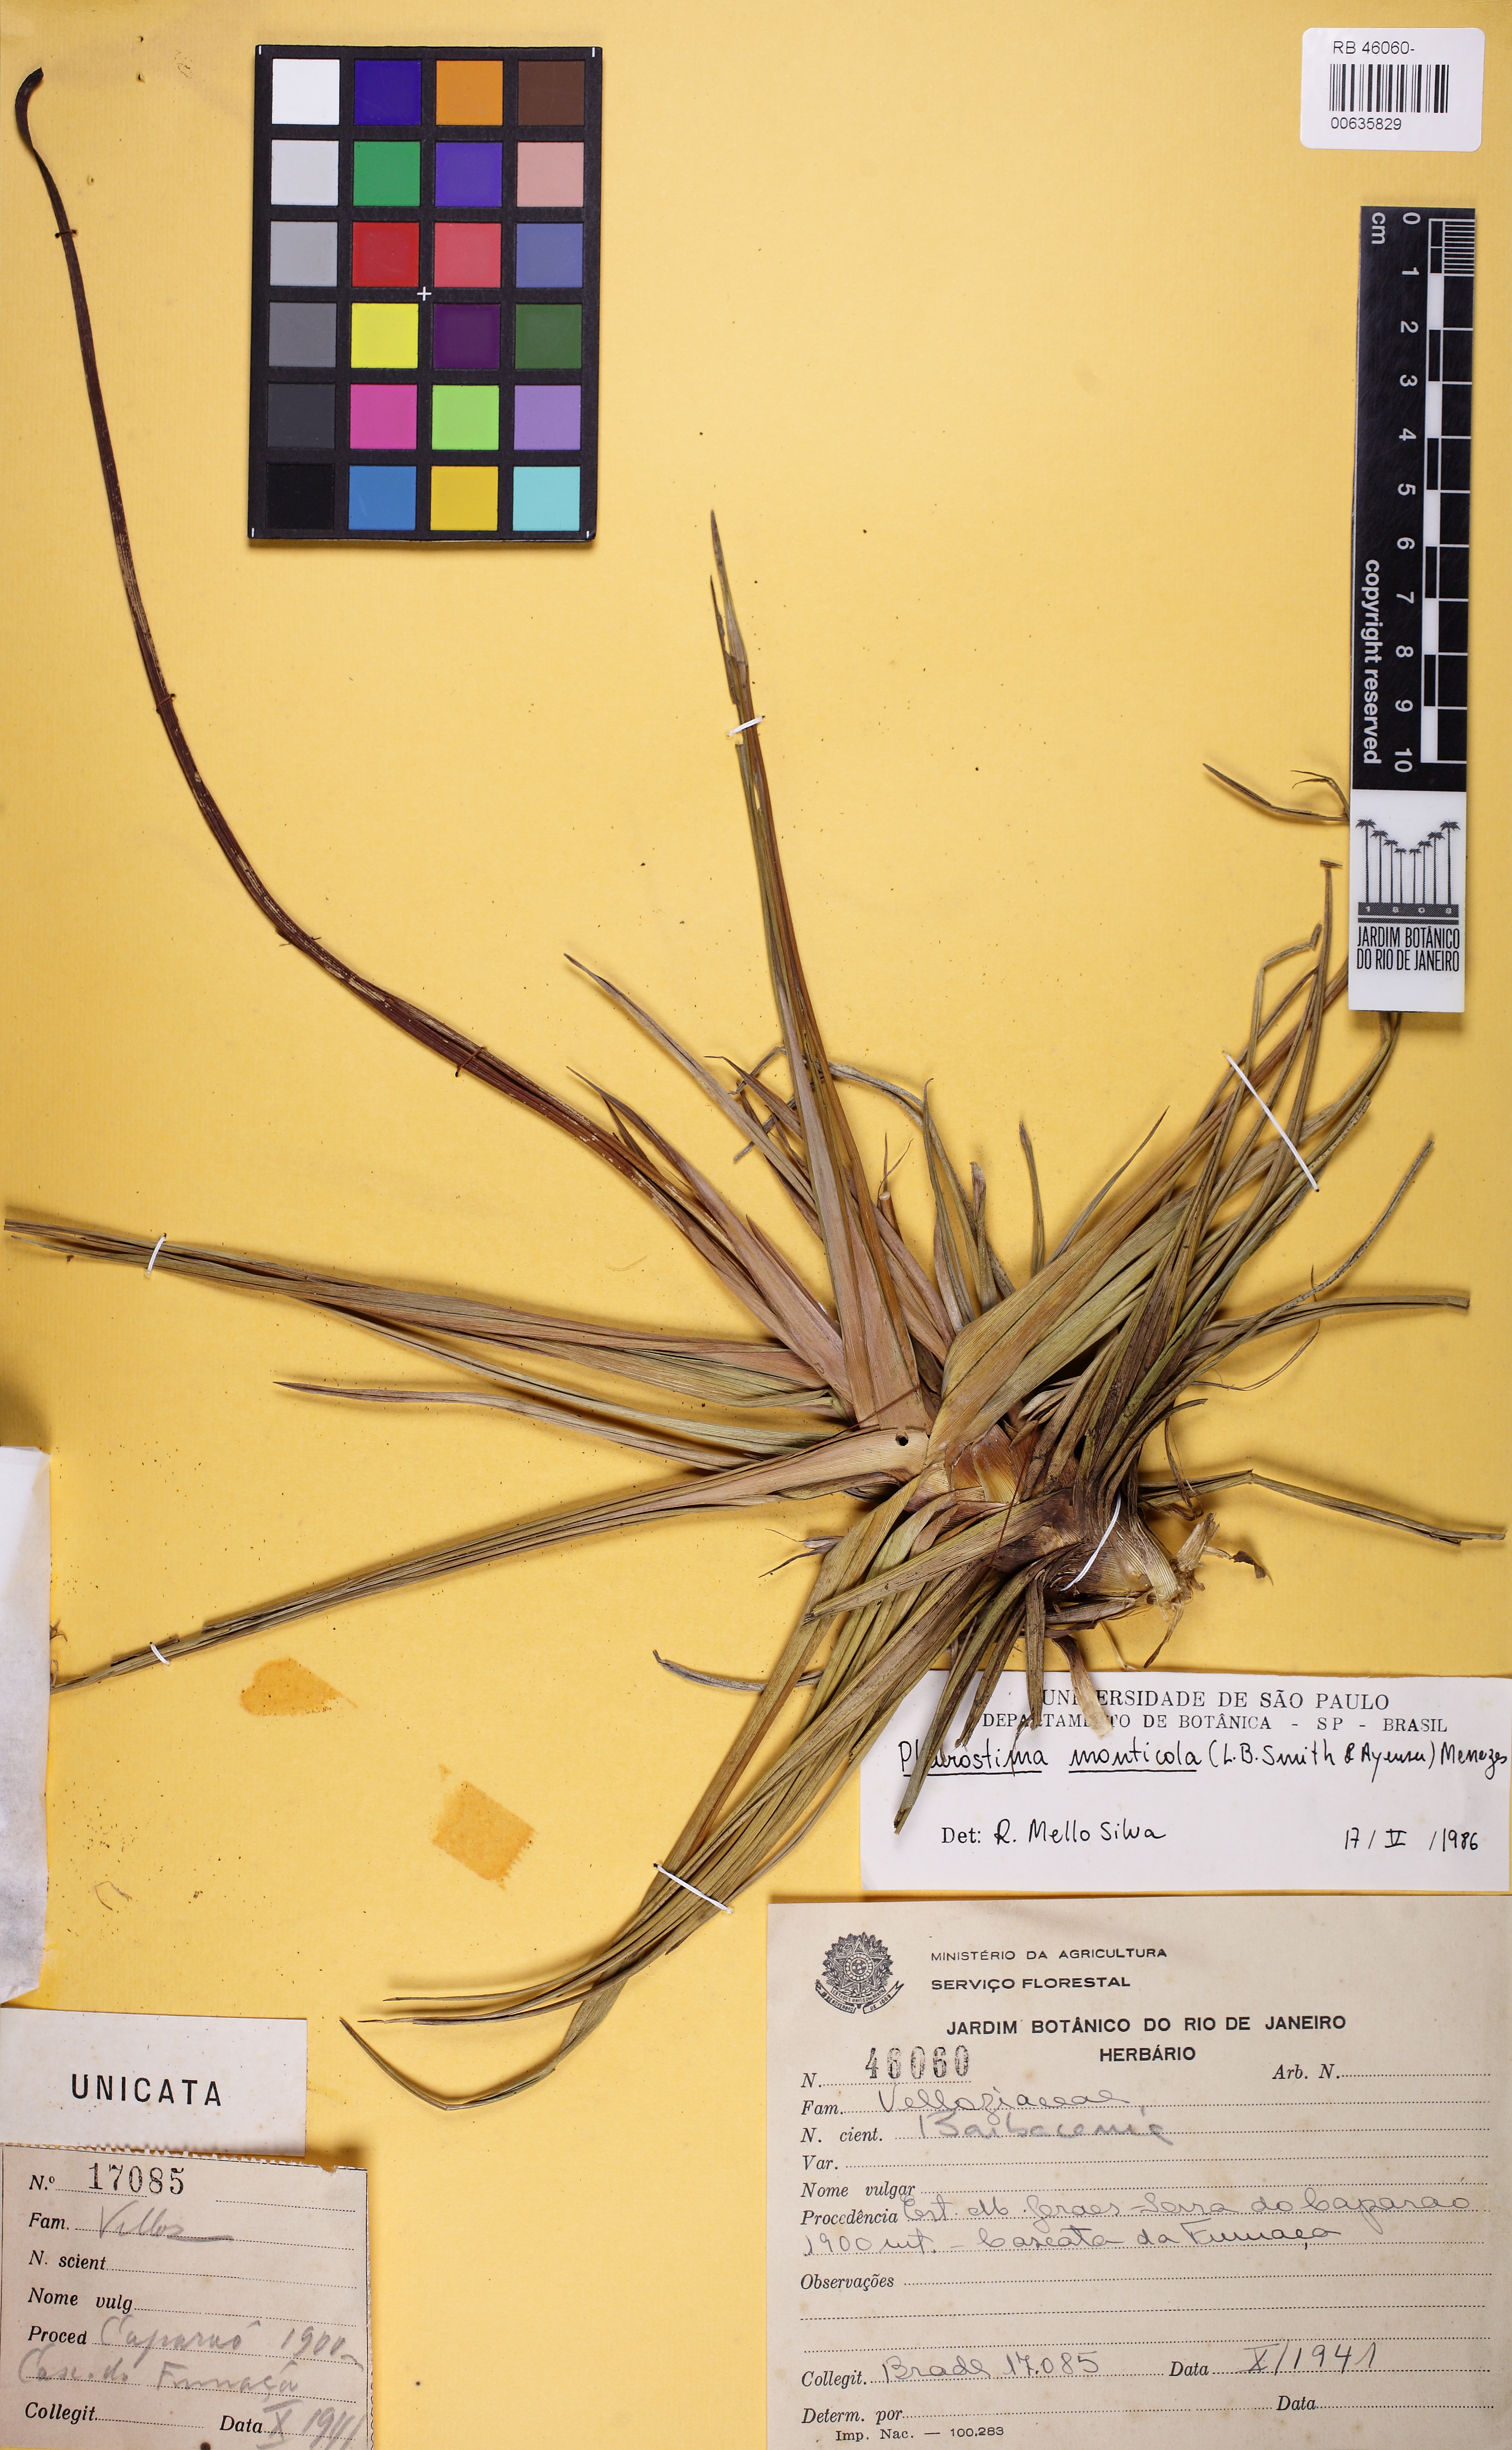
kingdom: Plantae
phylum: Tracheophyta
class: Liliopsida
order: Pandanales
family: Velloziaceae
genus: Barbacenia
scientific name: Barbacenia monticola
